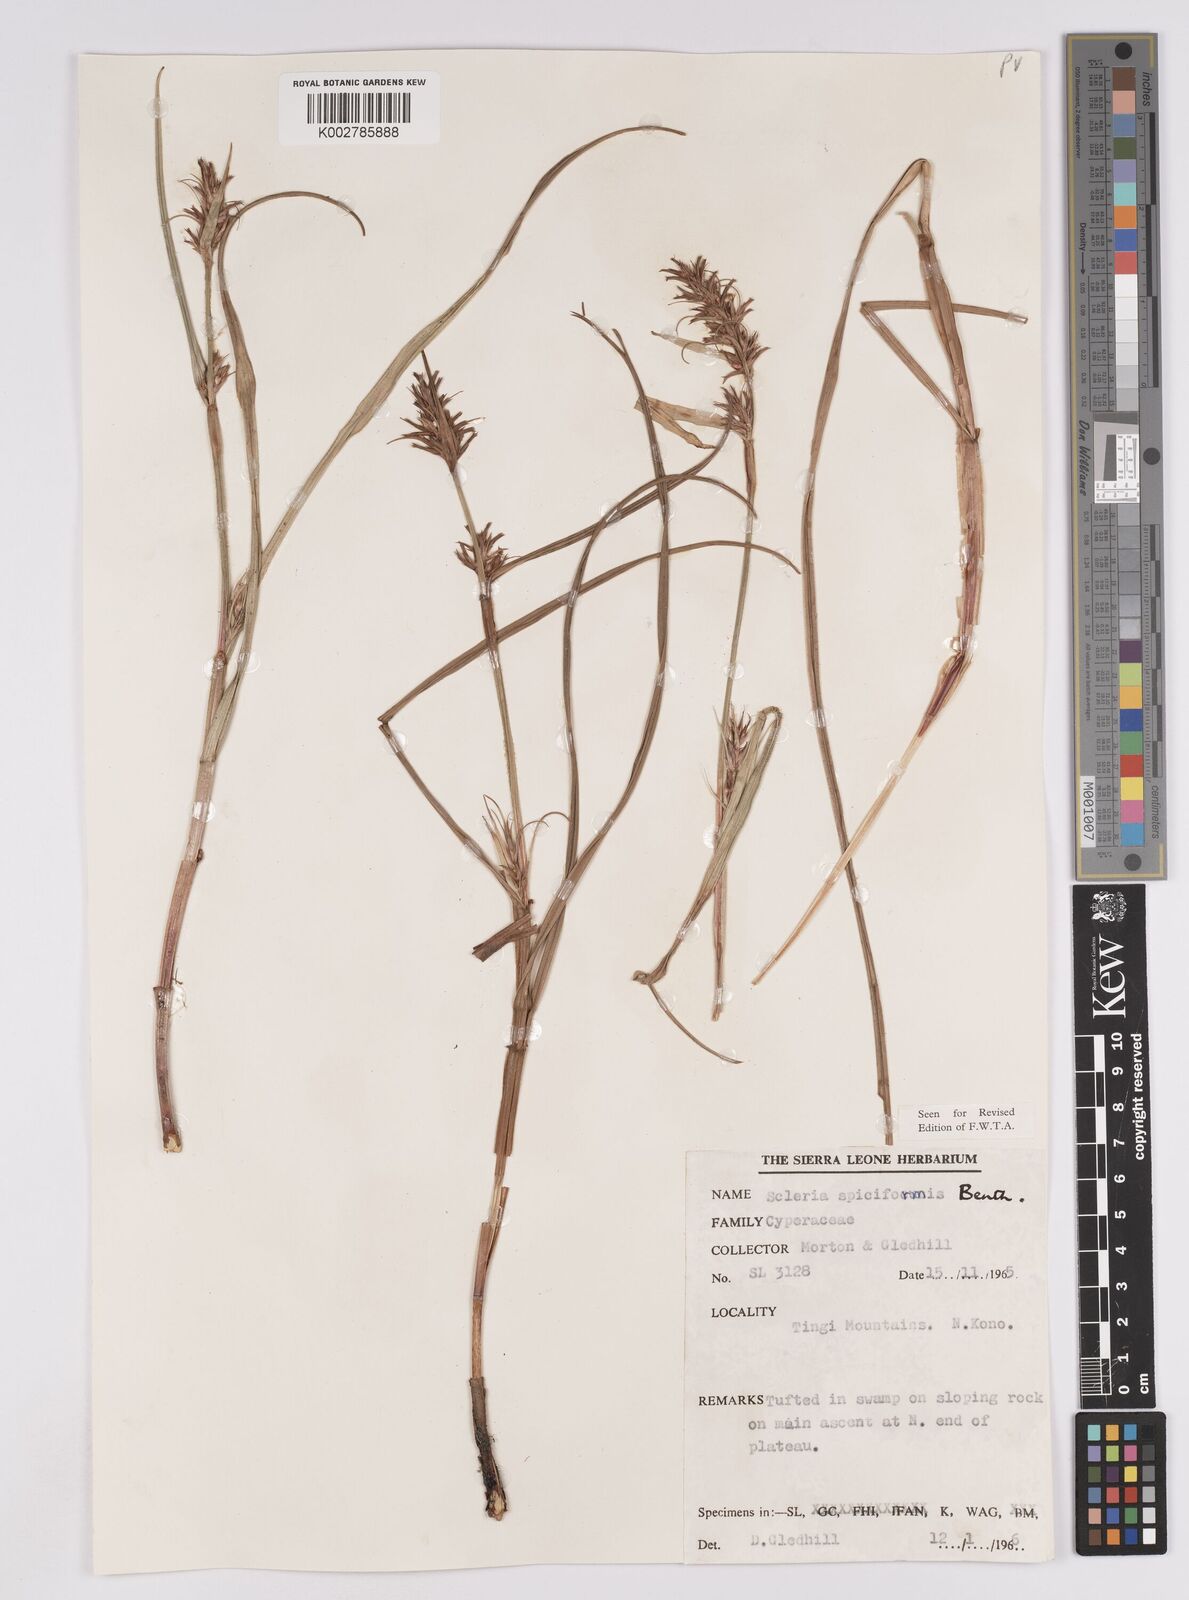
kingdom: Plantae
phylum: Tracheophyta
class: Liliopsida
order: Poales
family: Cyperaceae
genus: Scleria
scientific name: Scleria spiciformis
